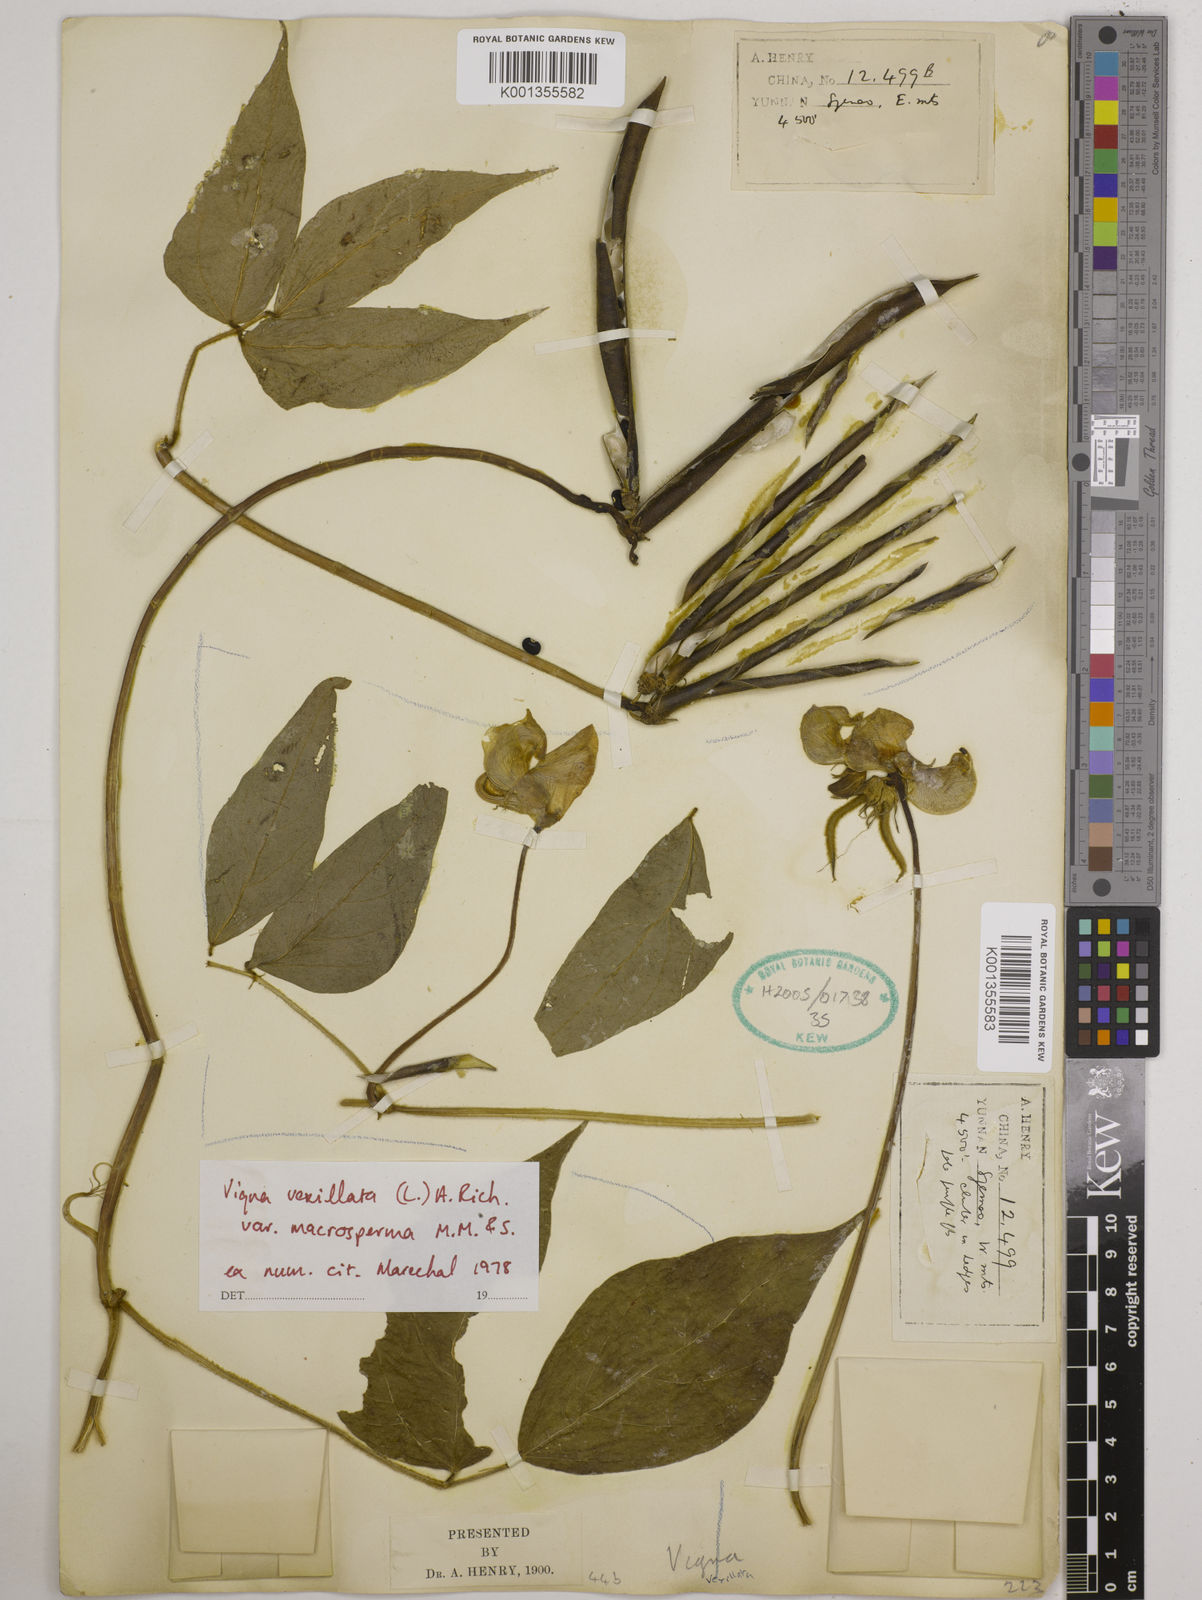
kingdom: Plantae
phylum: Tracheophyta
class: Magnoliopsida
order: Fabales
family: Fabaceae
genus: Vigna
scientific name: Vigna vexillata
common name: Zombi pea
